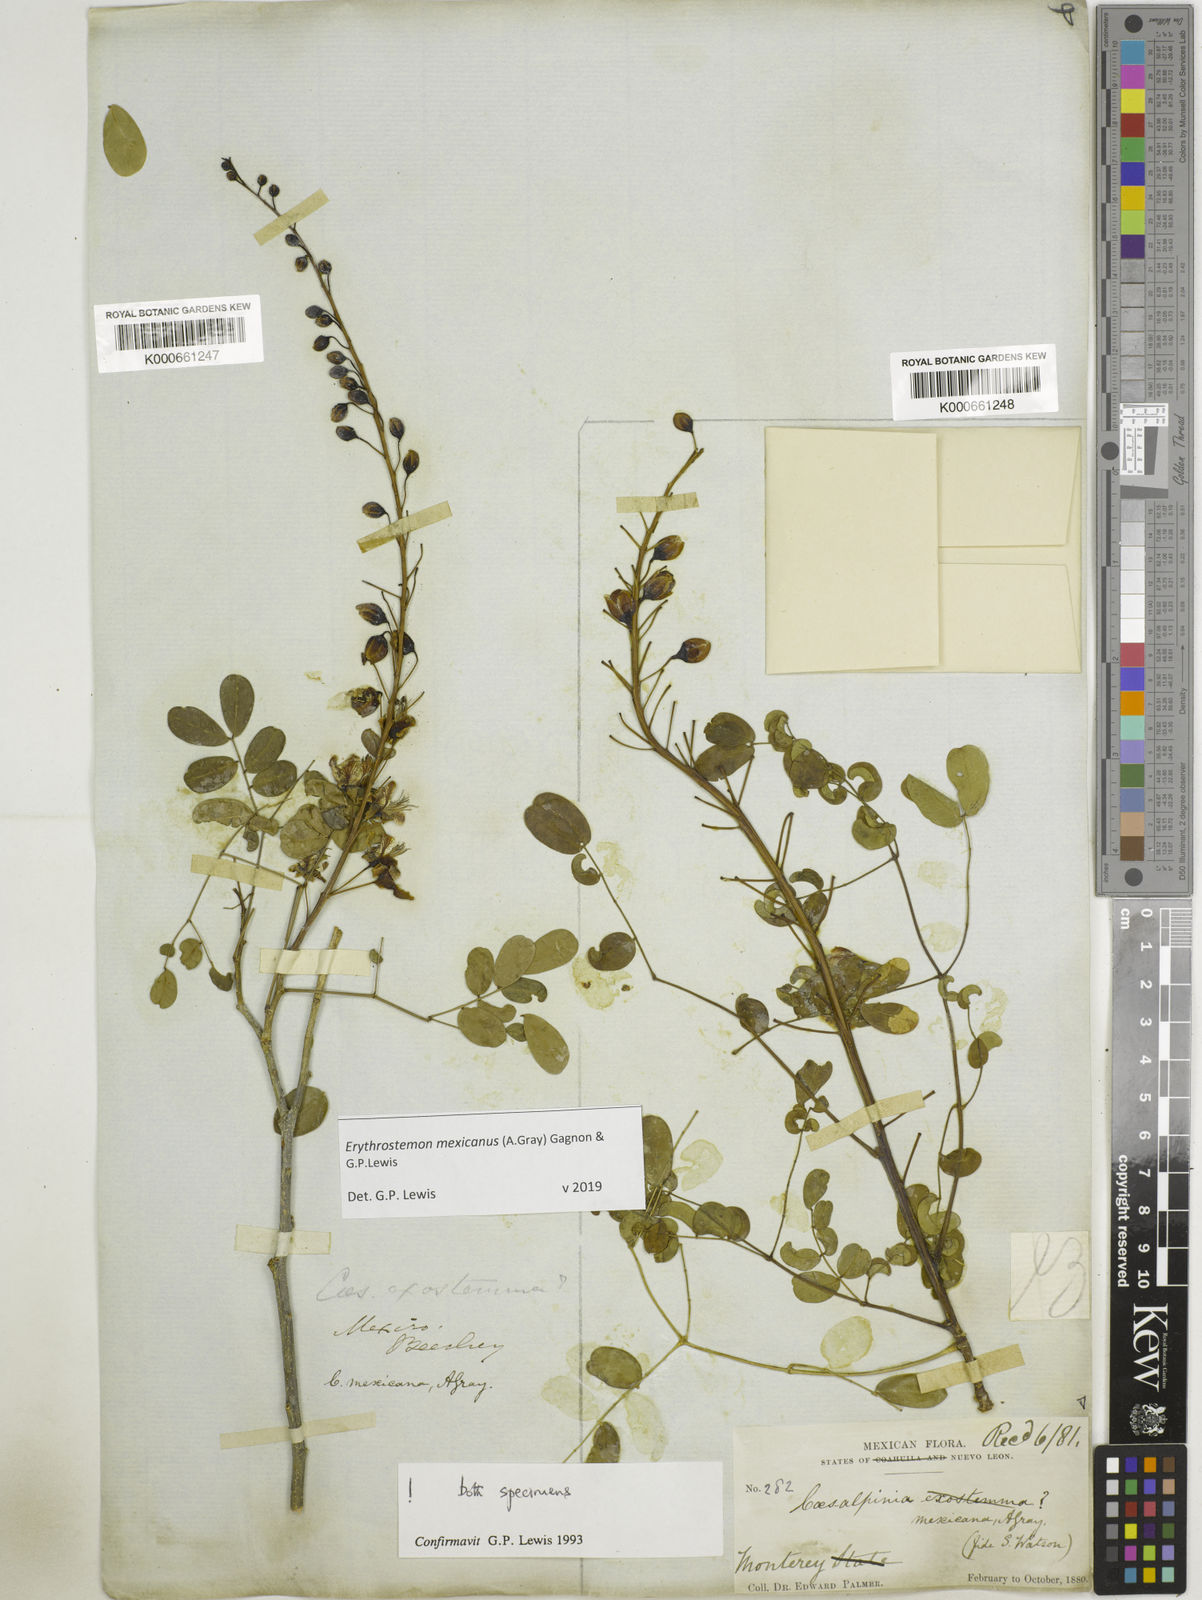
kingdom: Plantae
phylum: Tracheophyta
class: Magnoliopsida
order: Fabales
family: Fabaceae
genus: Erythrostemon
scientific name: Erythrostemon mexicanus
